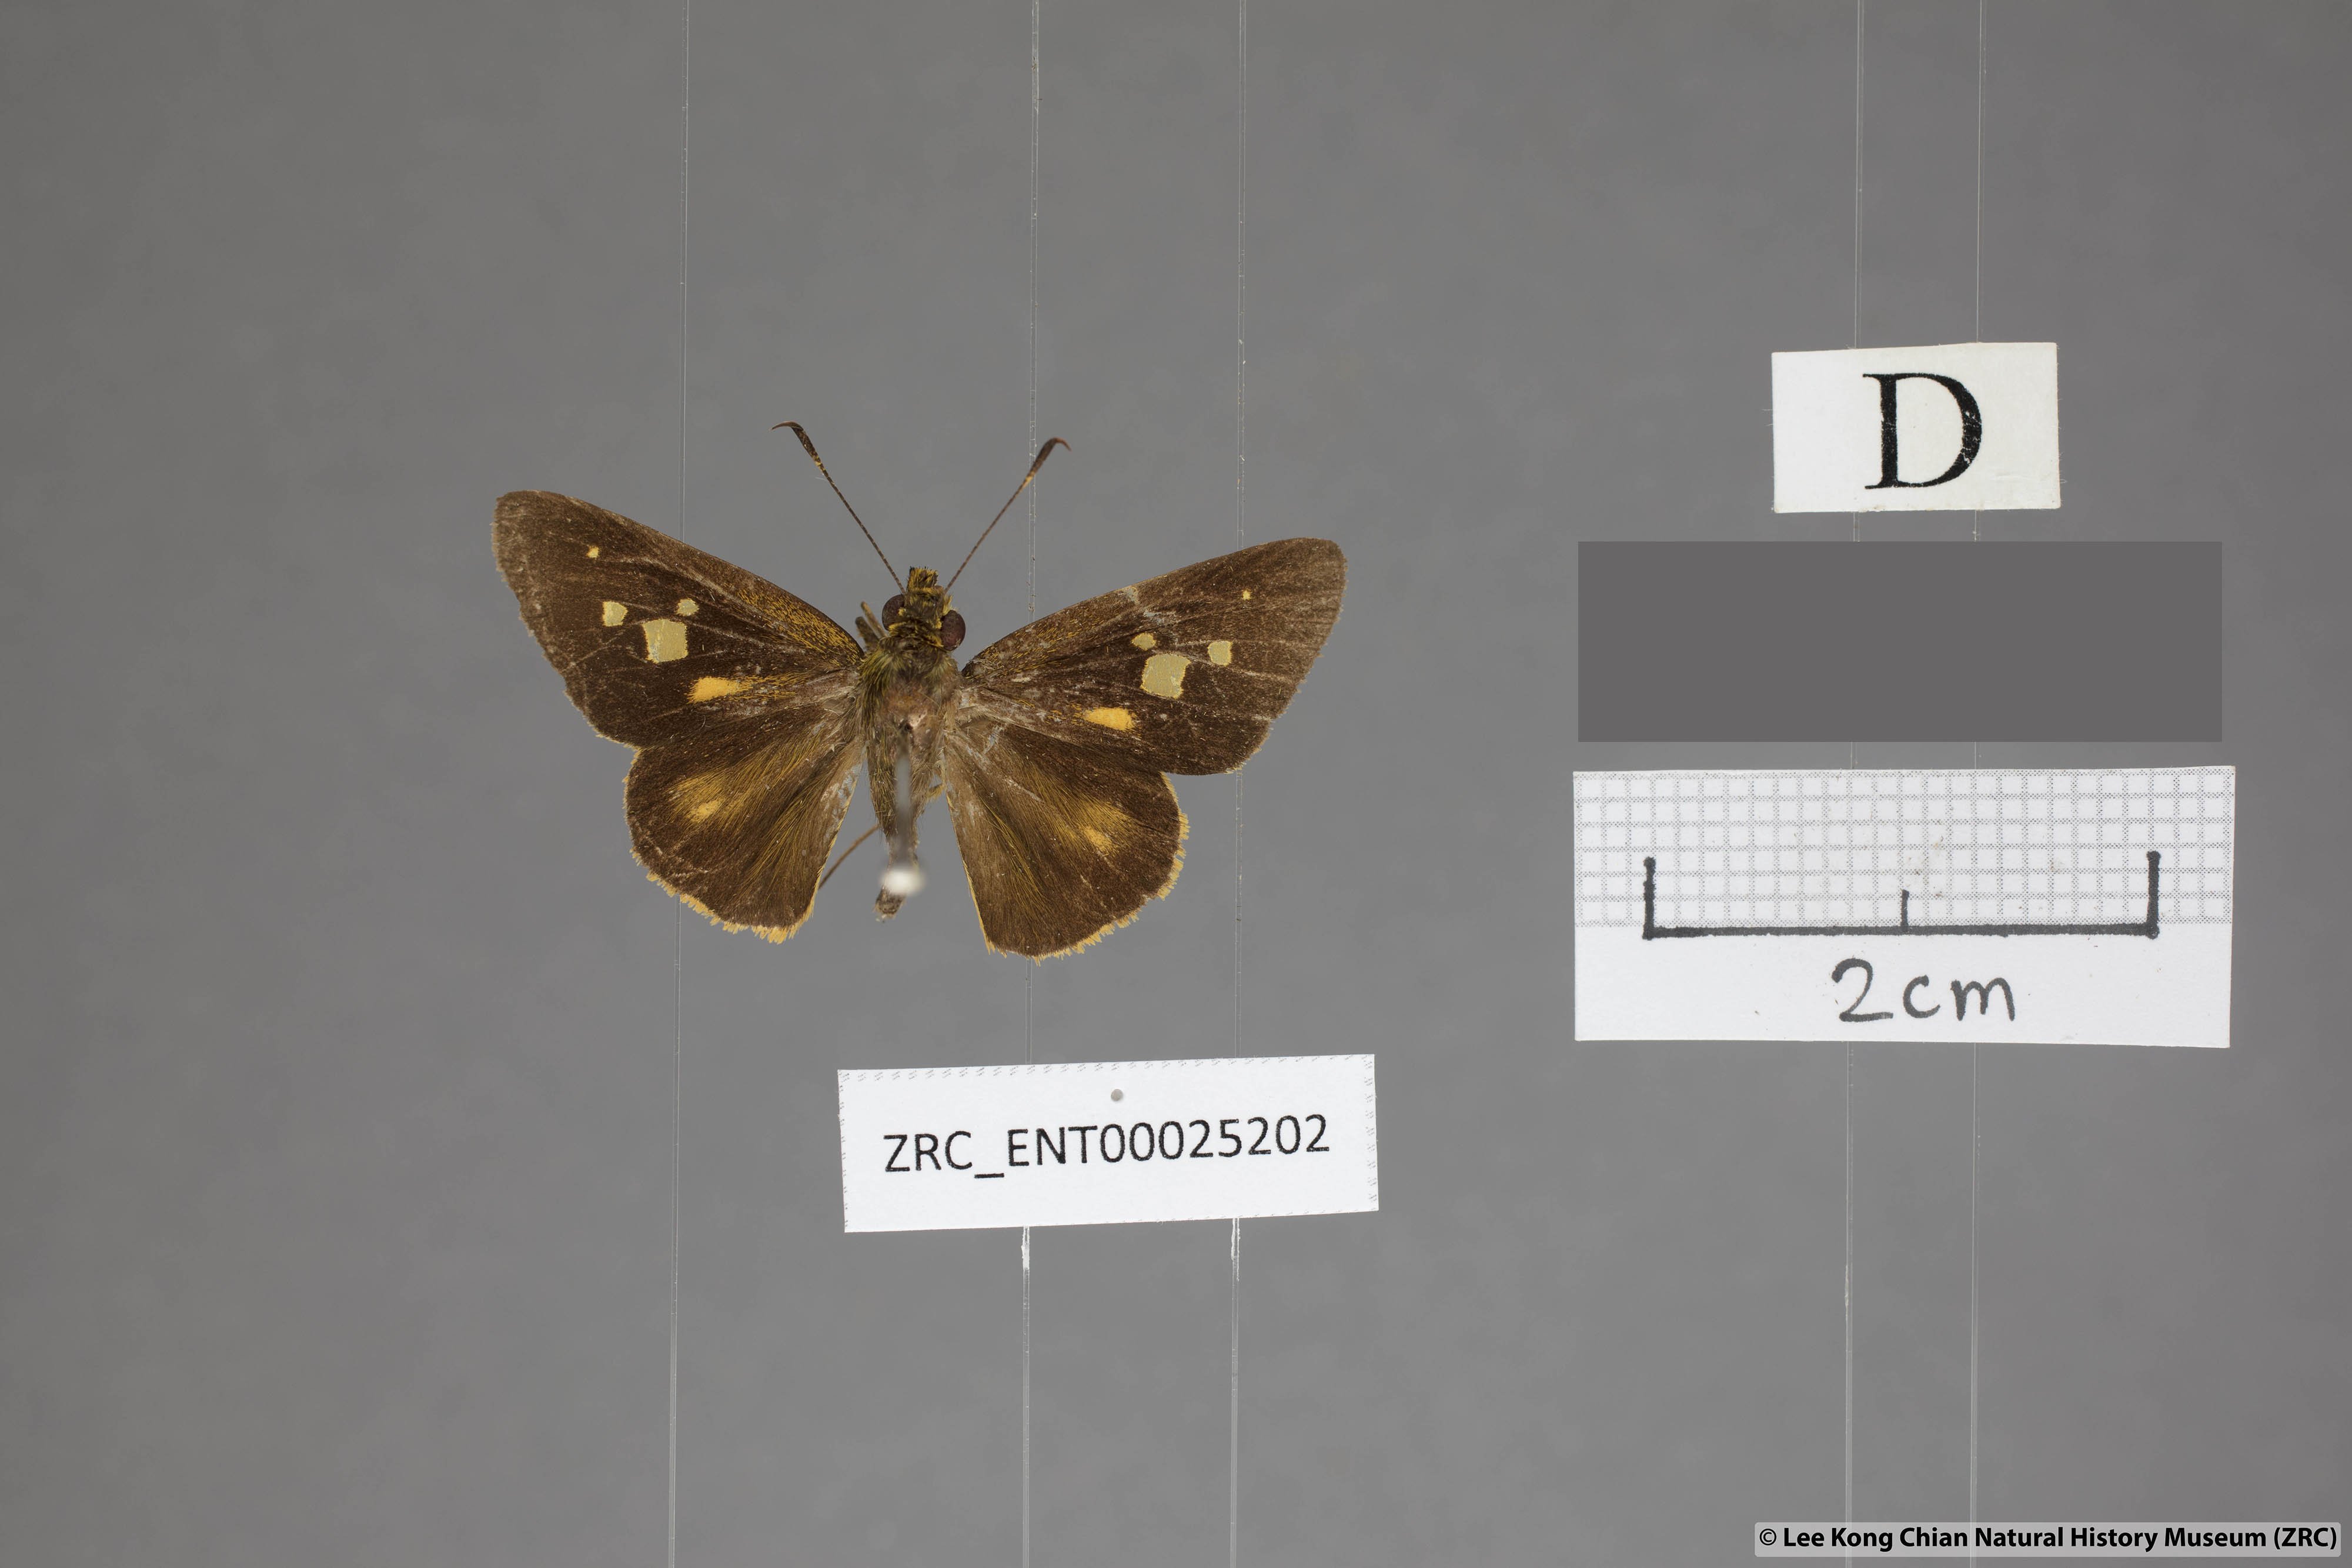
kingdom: Animalia
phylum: Arthropoda
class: Insecta
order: Lepidoptera
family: Hesperiidae
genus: Xanthoneura
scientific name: Xanthoneura corissa
